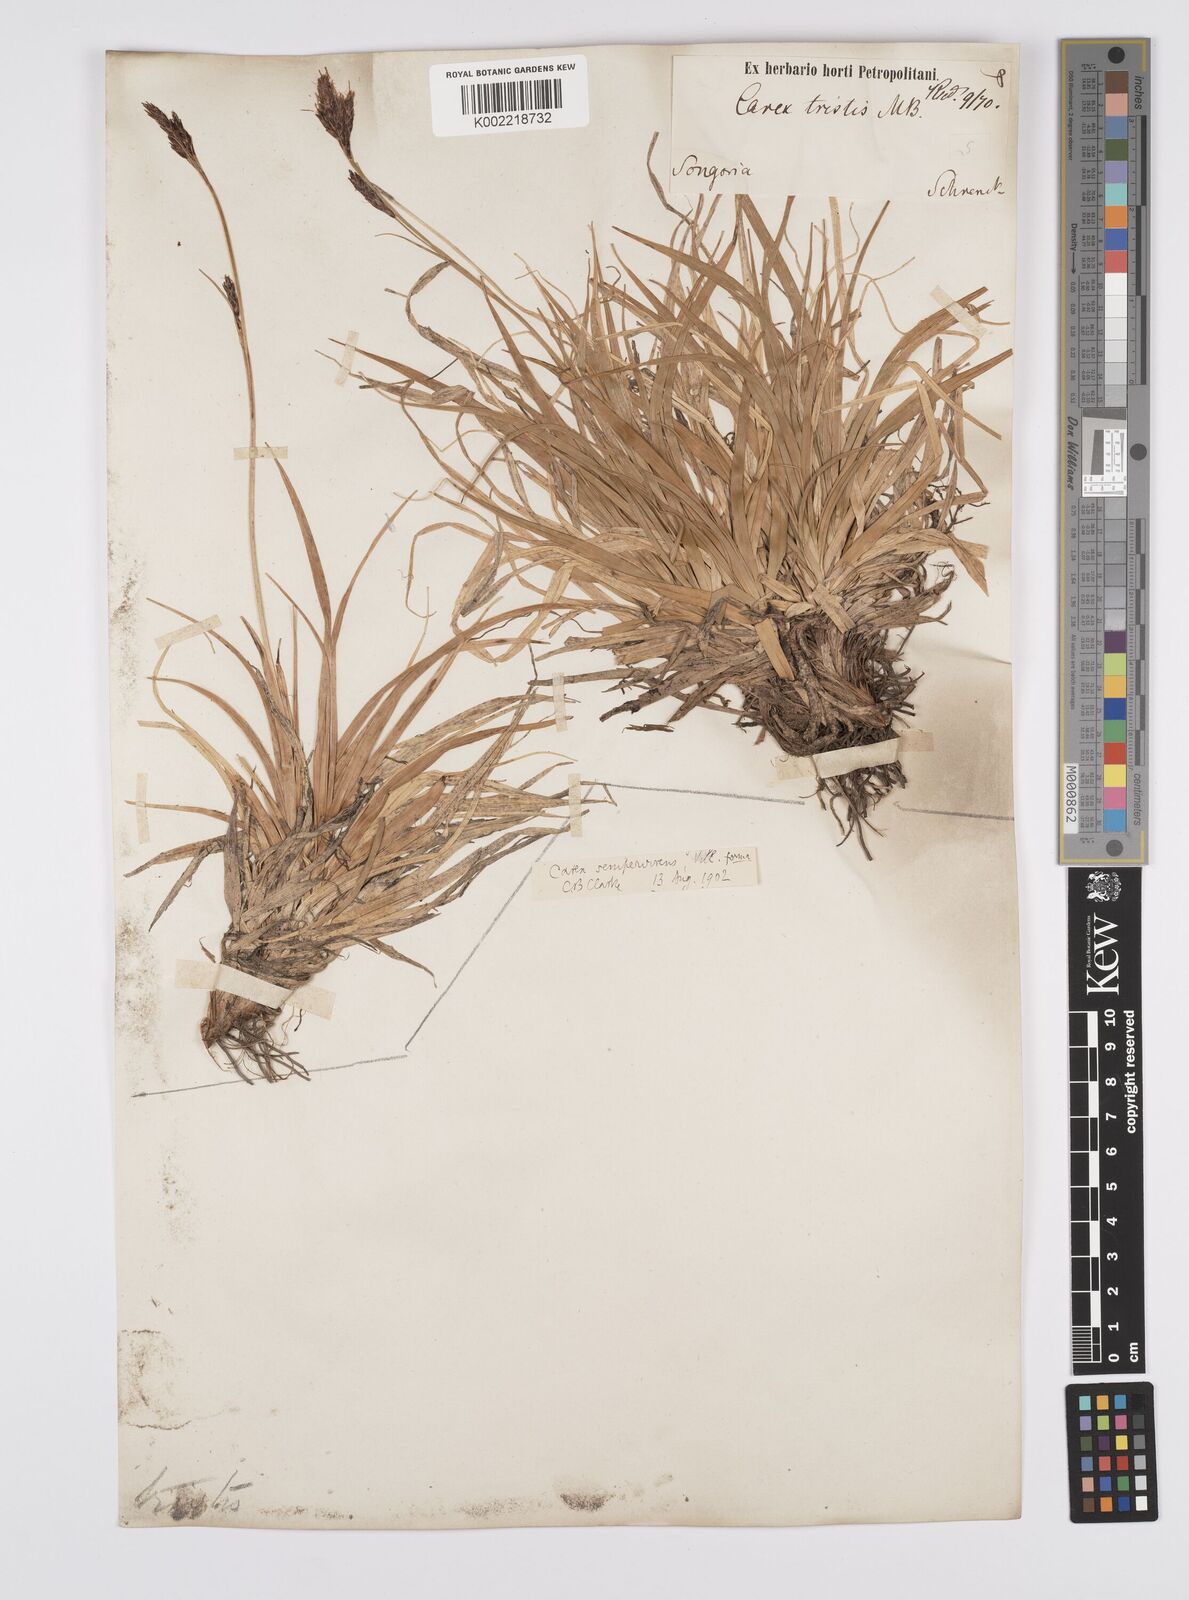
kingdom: Plantae
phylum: Tracheophyta
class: Liliopsida
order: Poales
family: Cyperaceae
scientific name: Cyperaceae
